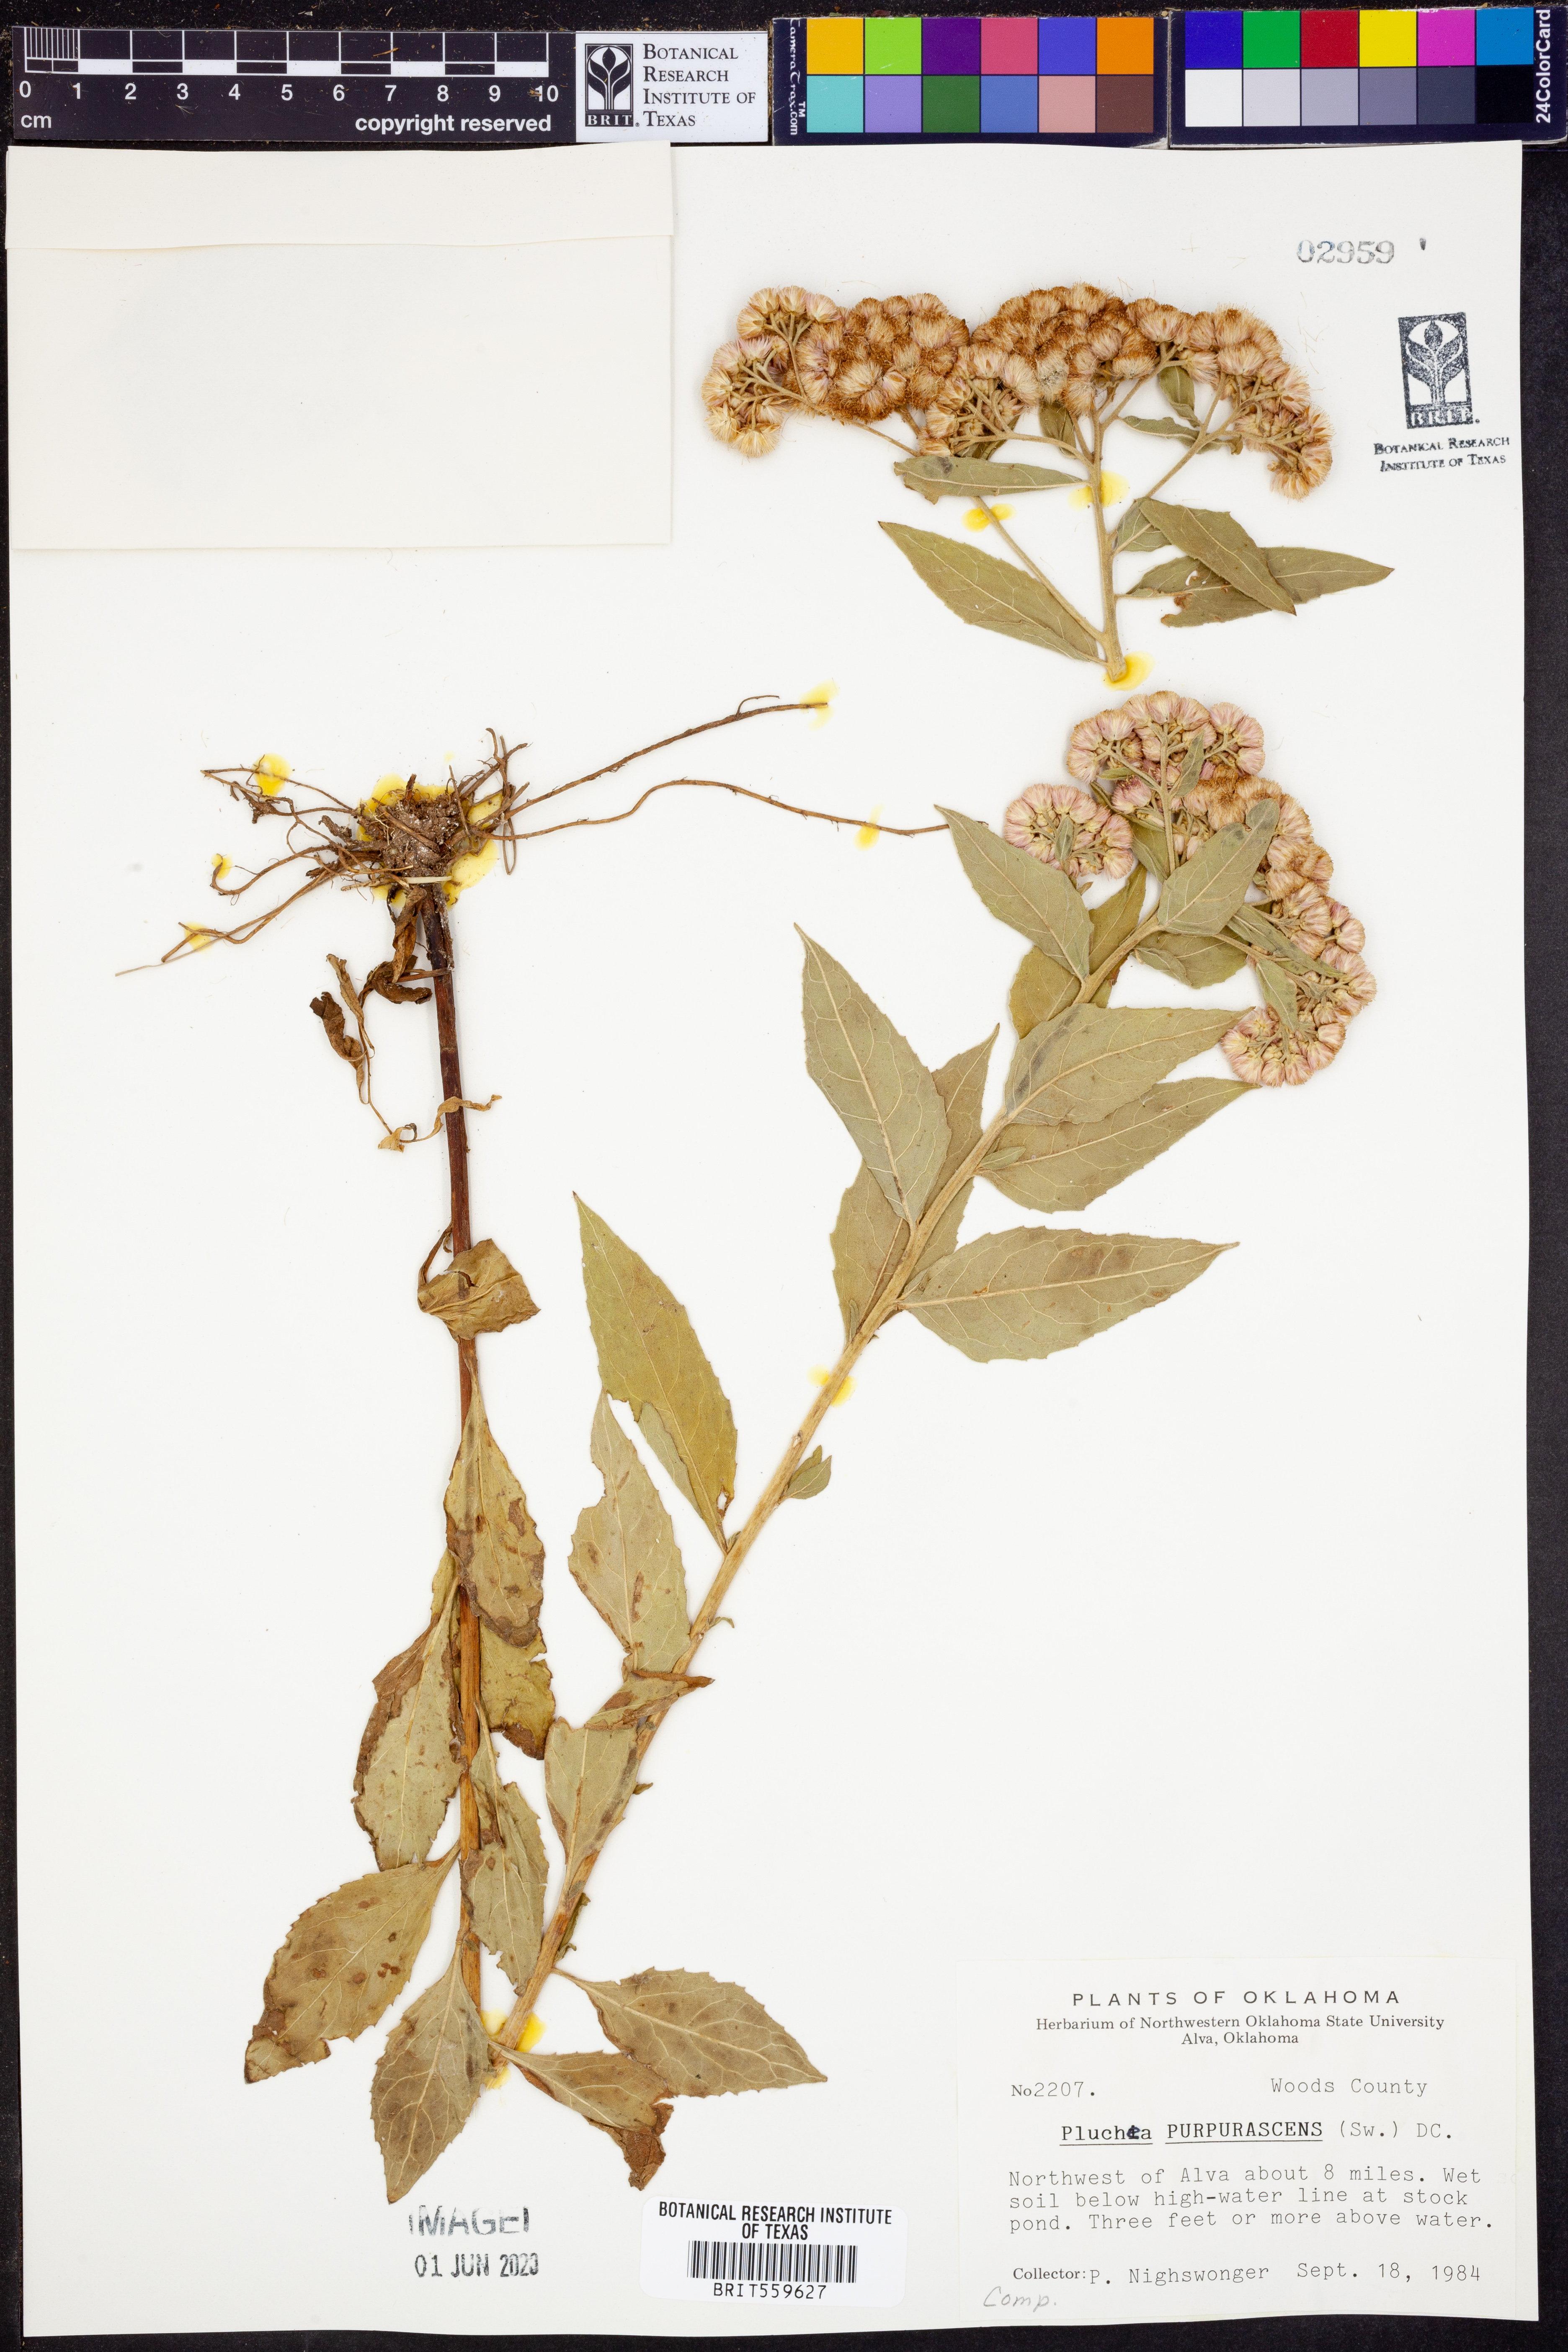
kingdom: Plantae
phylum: Tracheophyta
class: Magnoliopsida
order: Asterales
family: Asteraceae
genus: Pluchea
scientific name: Pluchea odorata
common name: Saltmarsh fleabane
